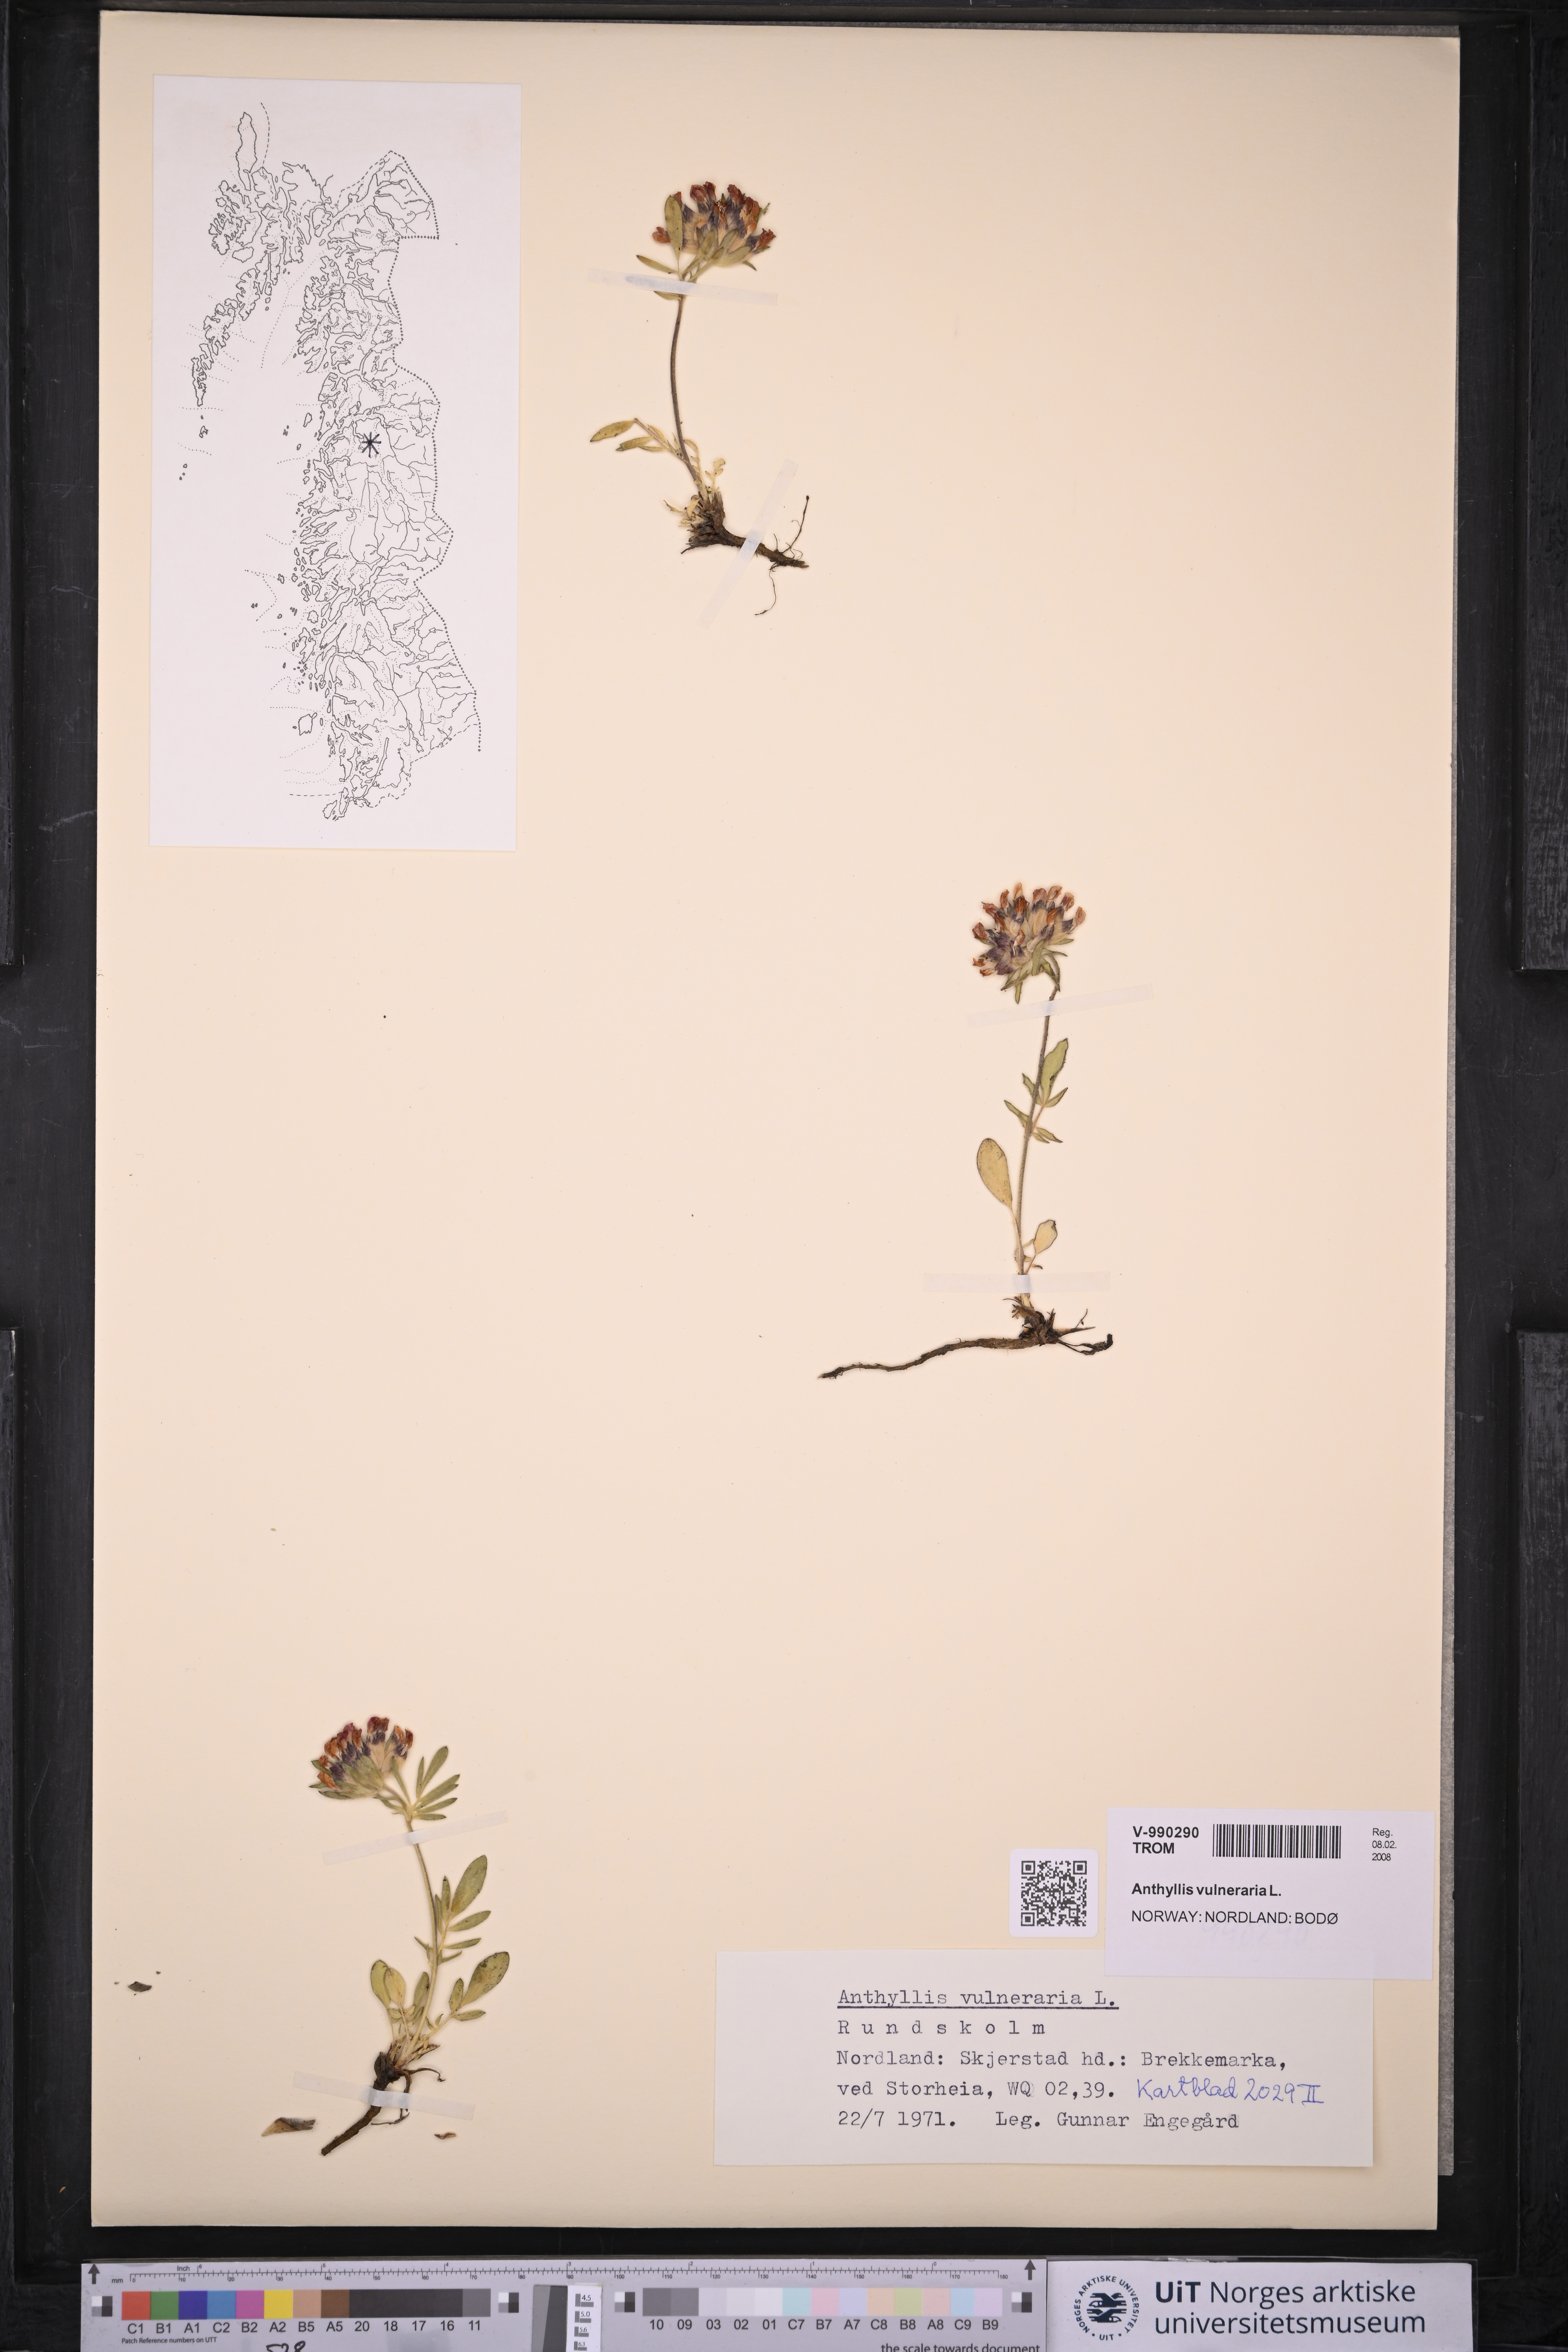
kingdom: Plantae
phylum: Tracheophyta
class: Magnoliopsida
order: Fabales
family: Fabaceae
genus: Anthyllis
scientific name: Anthyllis vulneraria
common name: Kidney vetch
